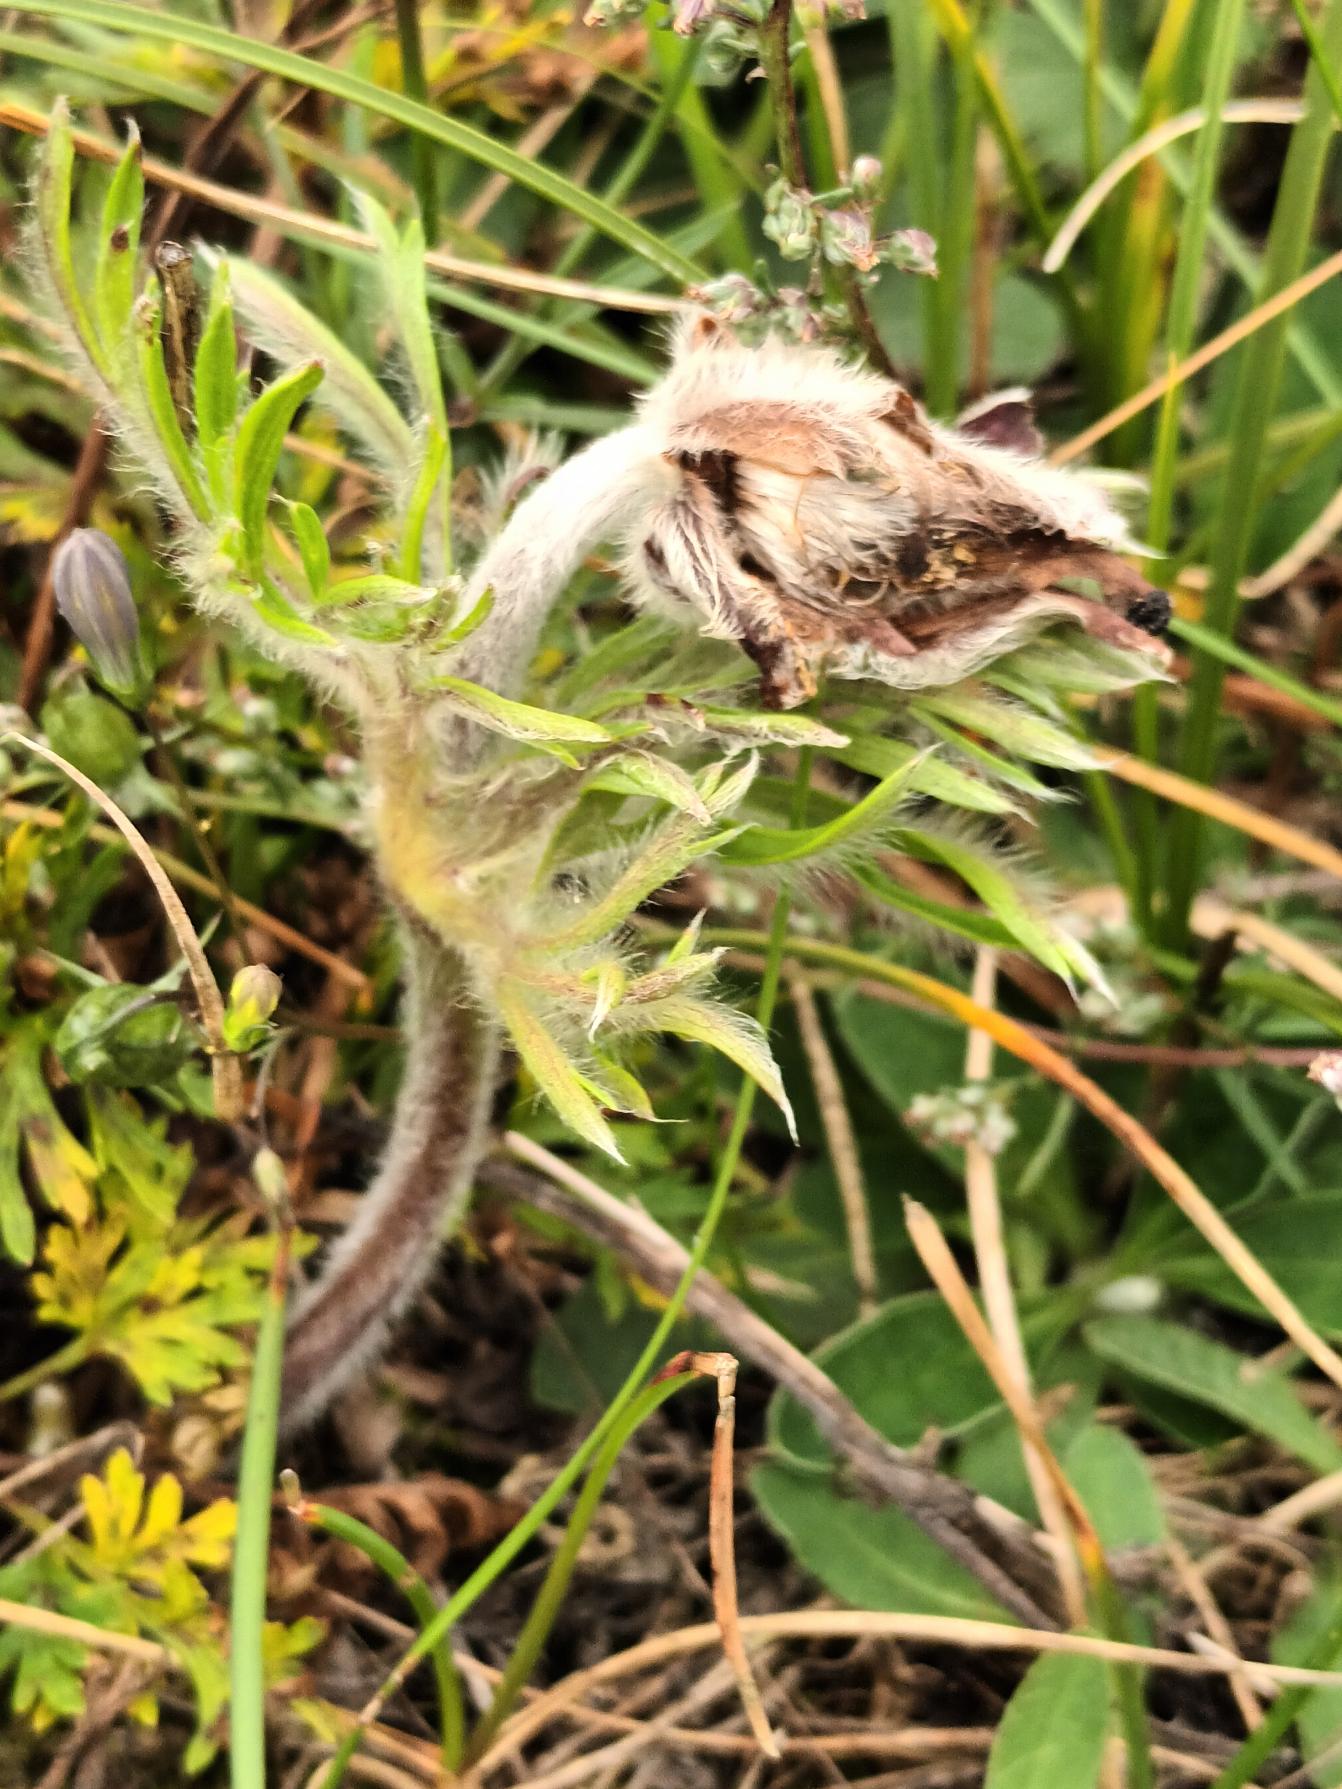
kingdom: Plantae
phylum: Tracheophyta
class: Magnoliopsida
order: Ranunculales
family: Ranunculaceae
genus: Pulsatilla
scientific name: Pulsatilla pratensis
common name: Nikkende kobjælde
